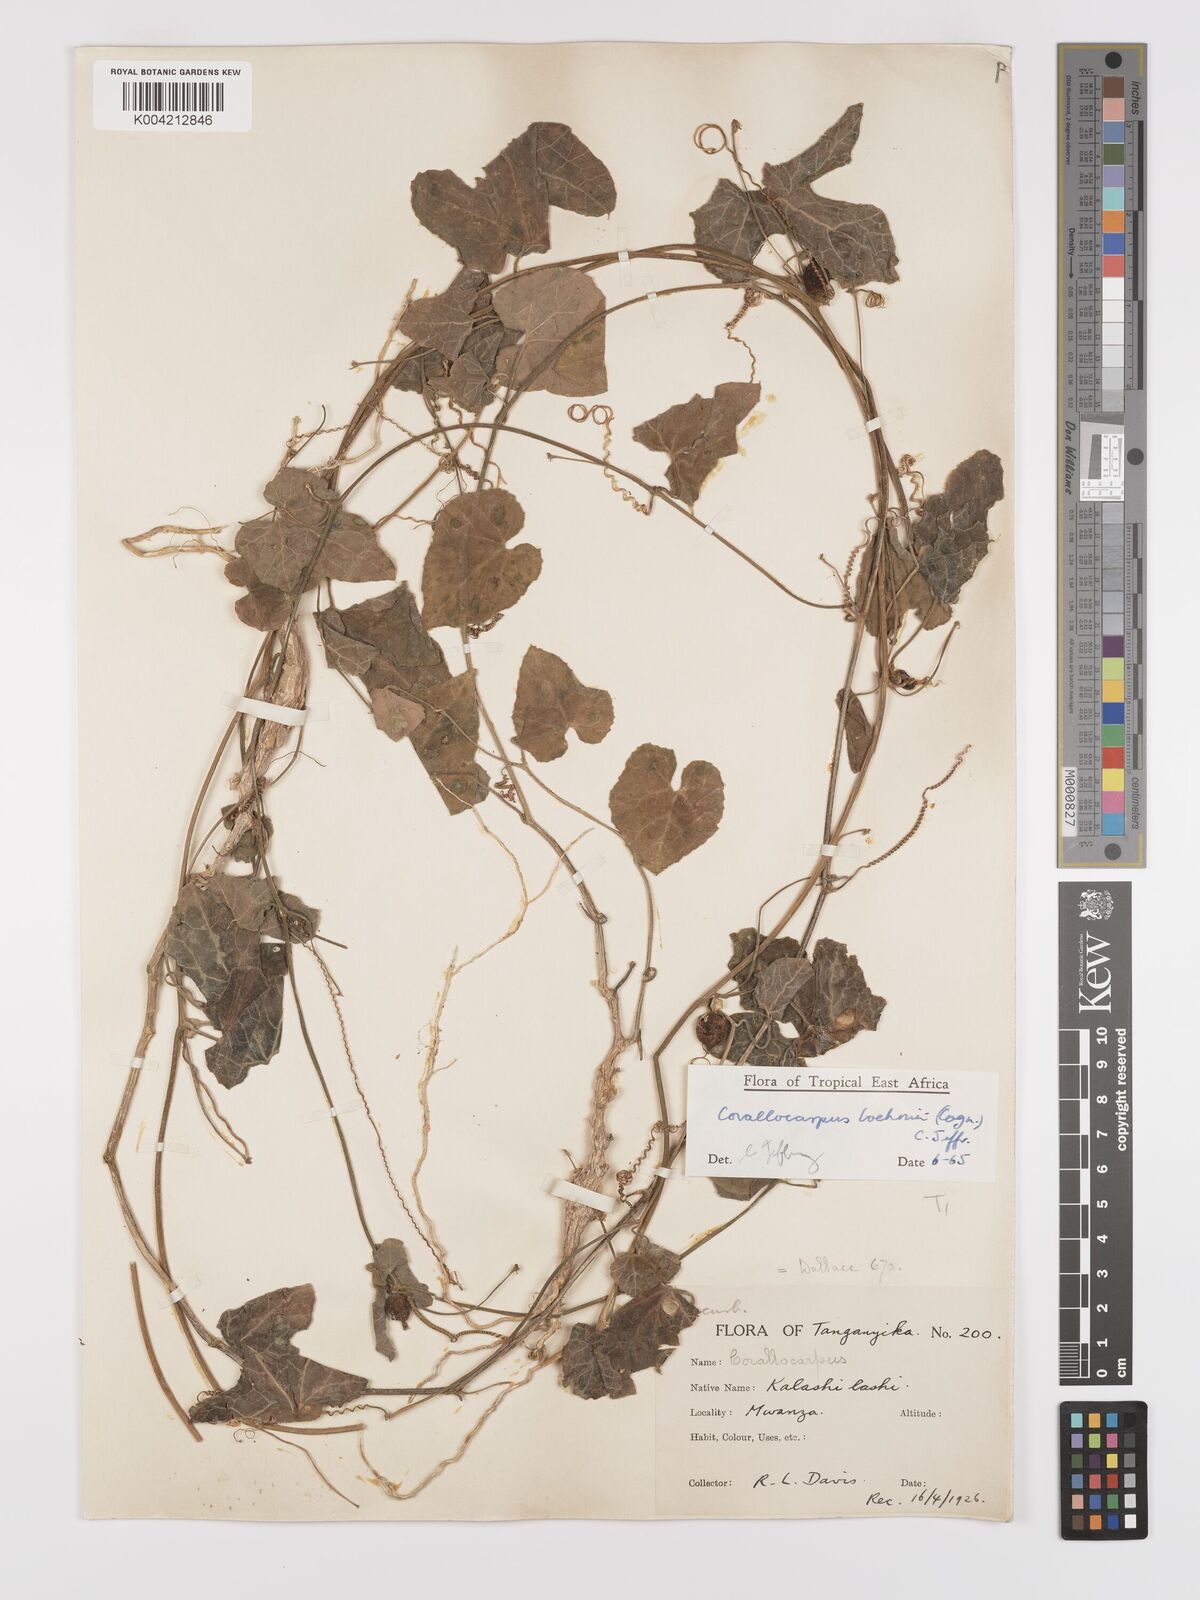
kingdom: Plantae
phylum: Tracheophyta
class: Magnoliopsida
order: Cucurbitales
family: Cucurbitaceae
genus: Corallocarpus
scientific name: Corallocarpus boehmii
